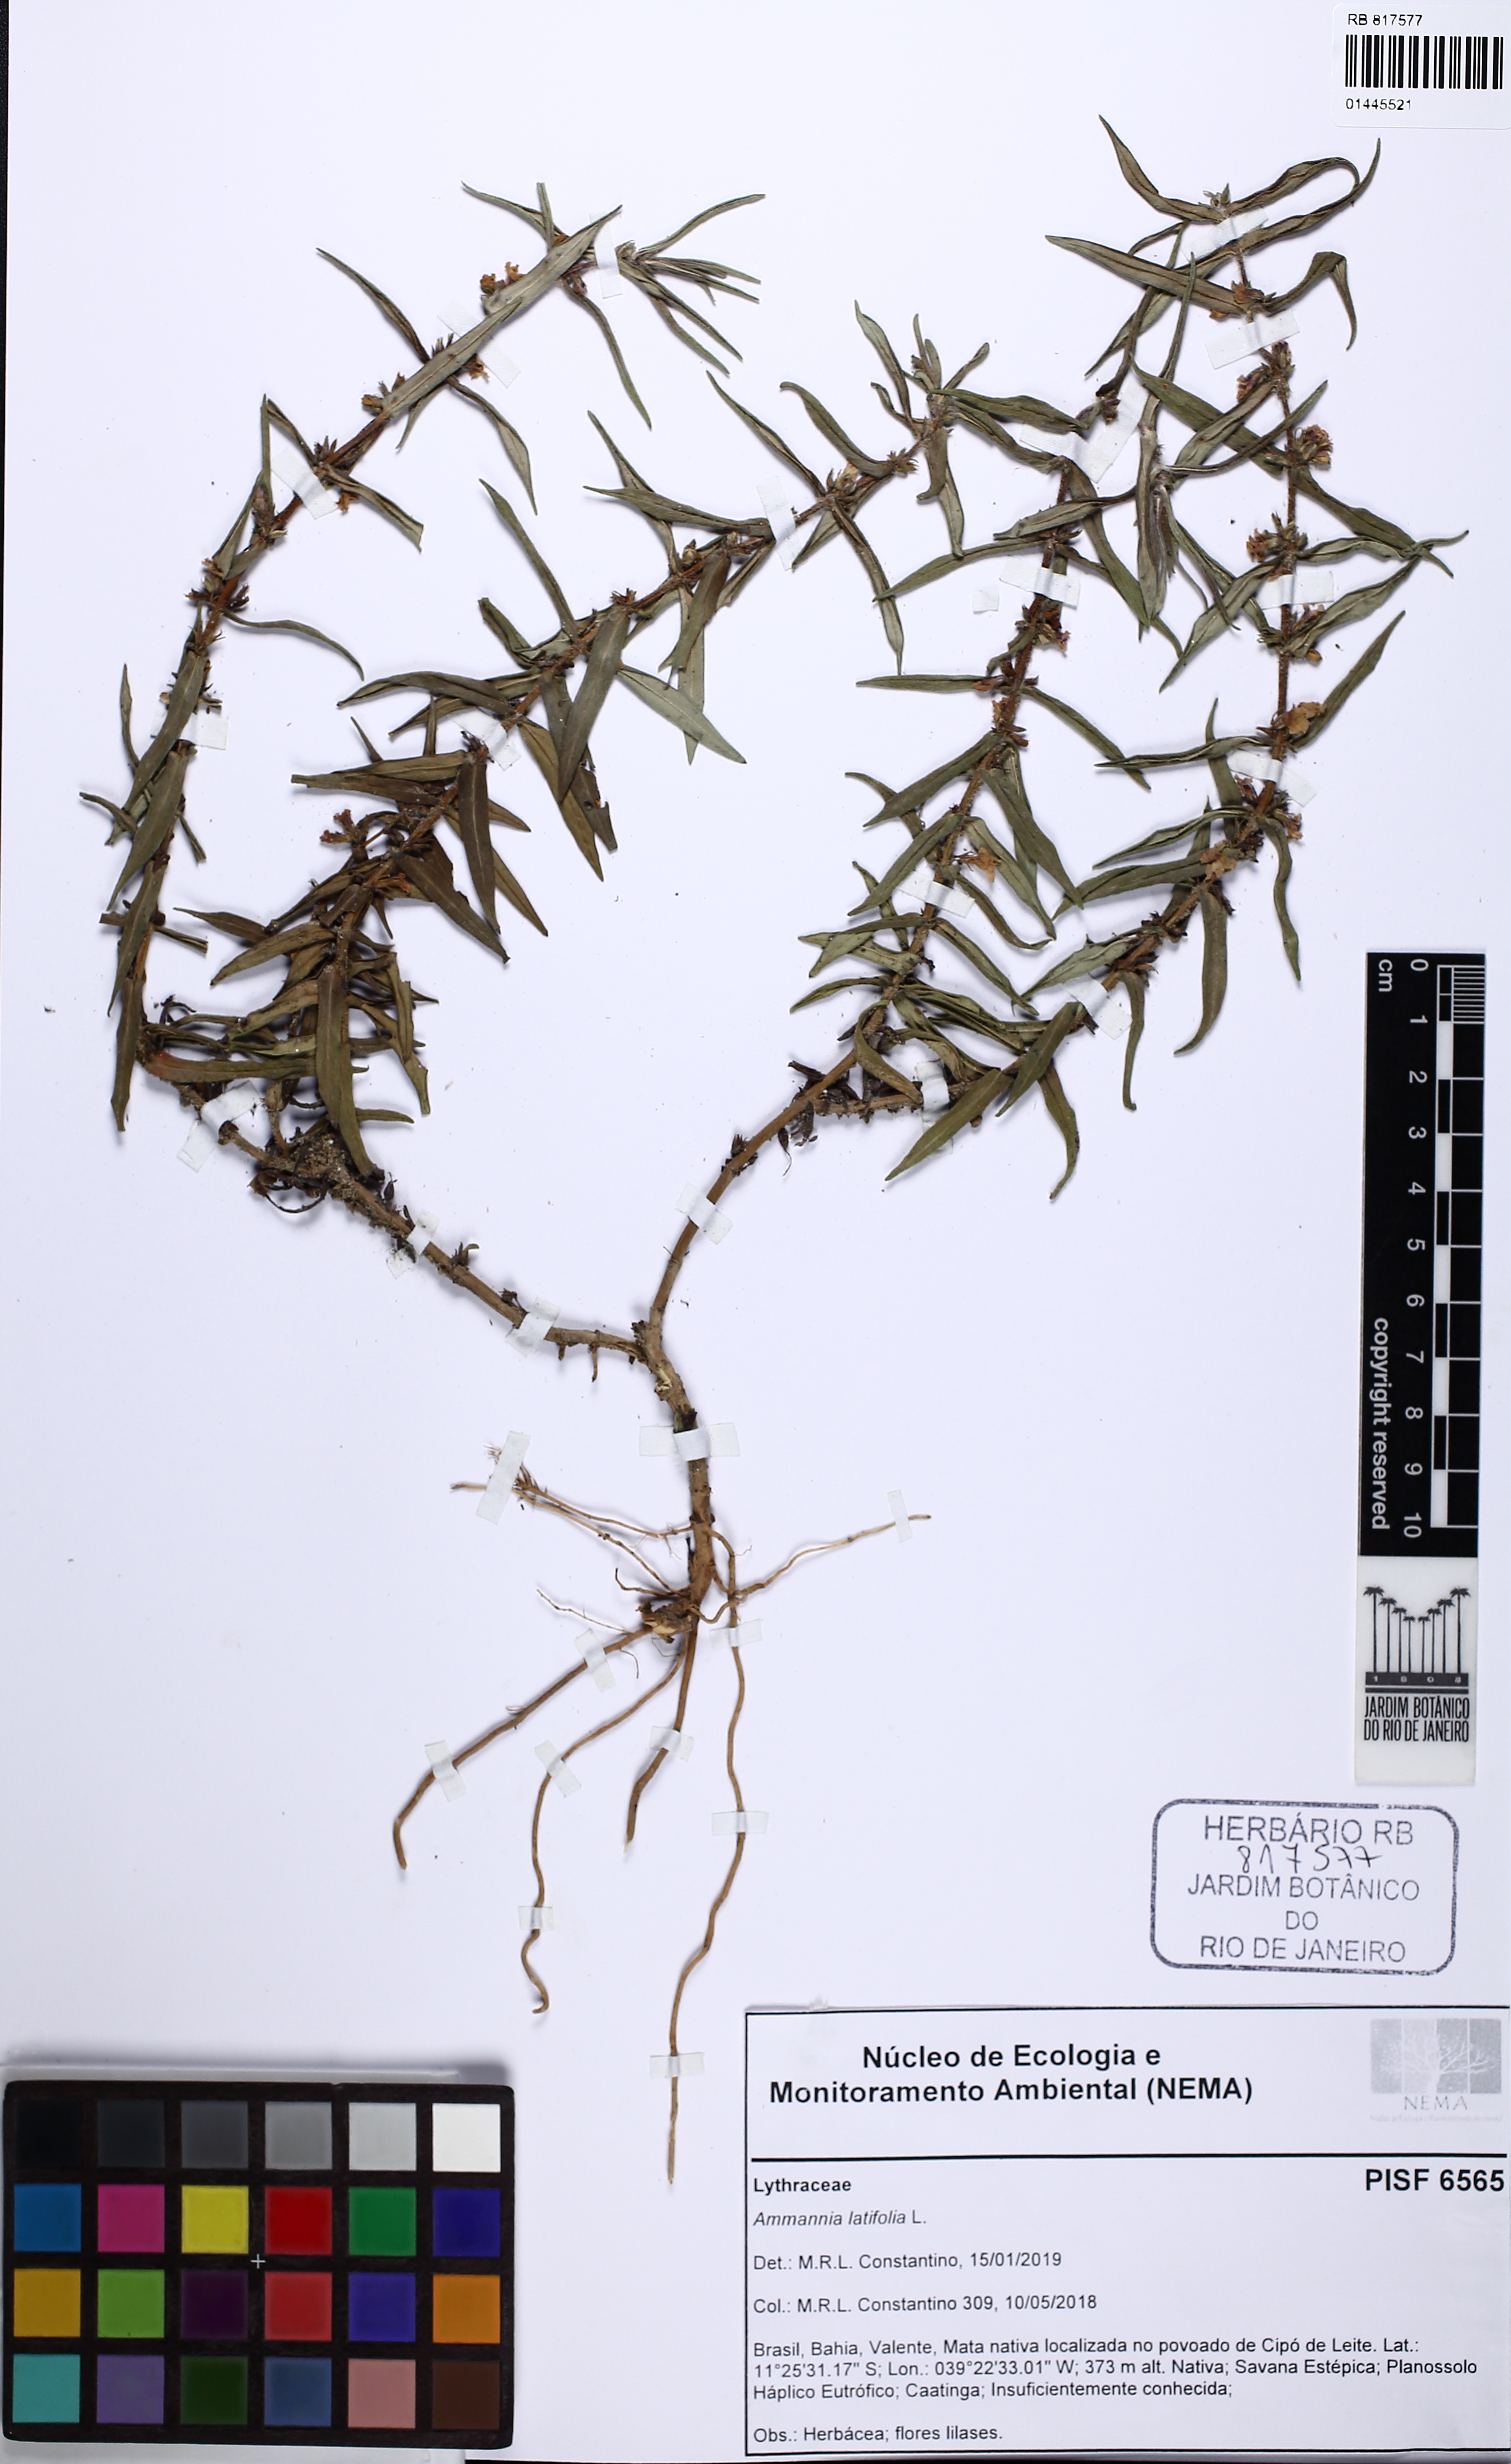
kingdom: Plantae
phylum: Tracheophyta
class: Magnoliopsida
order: Myrtales
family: Lythraceae
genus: Ammannia
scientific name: Ammannia latifolia
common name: Toothcup
